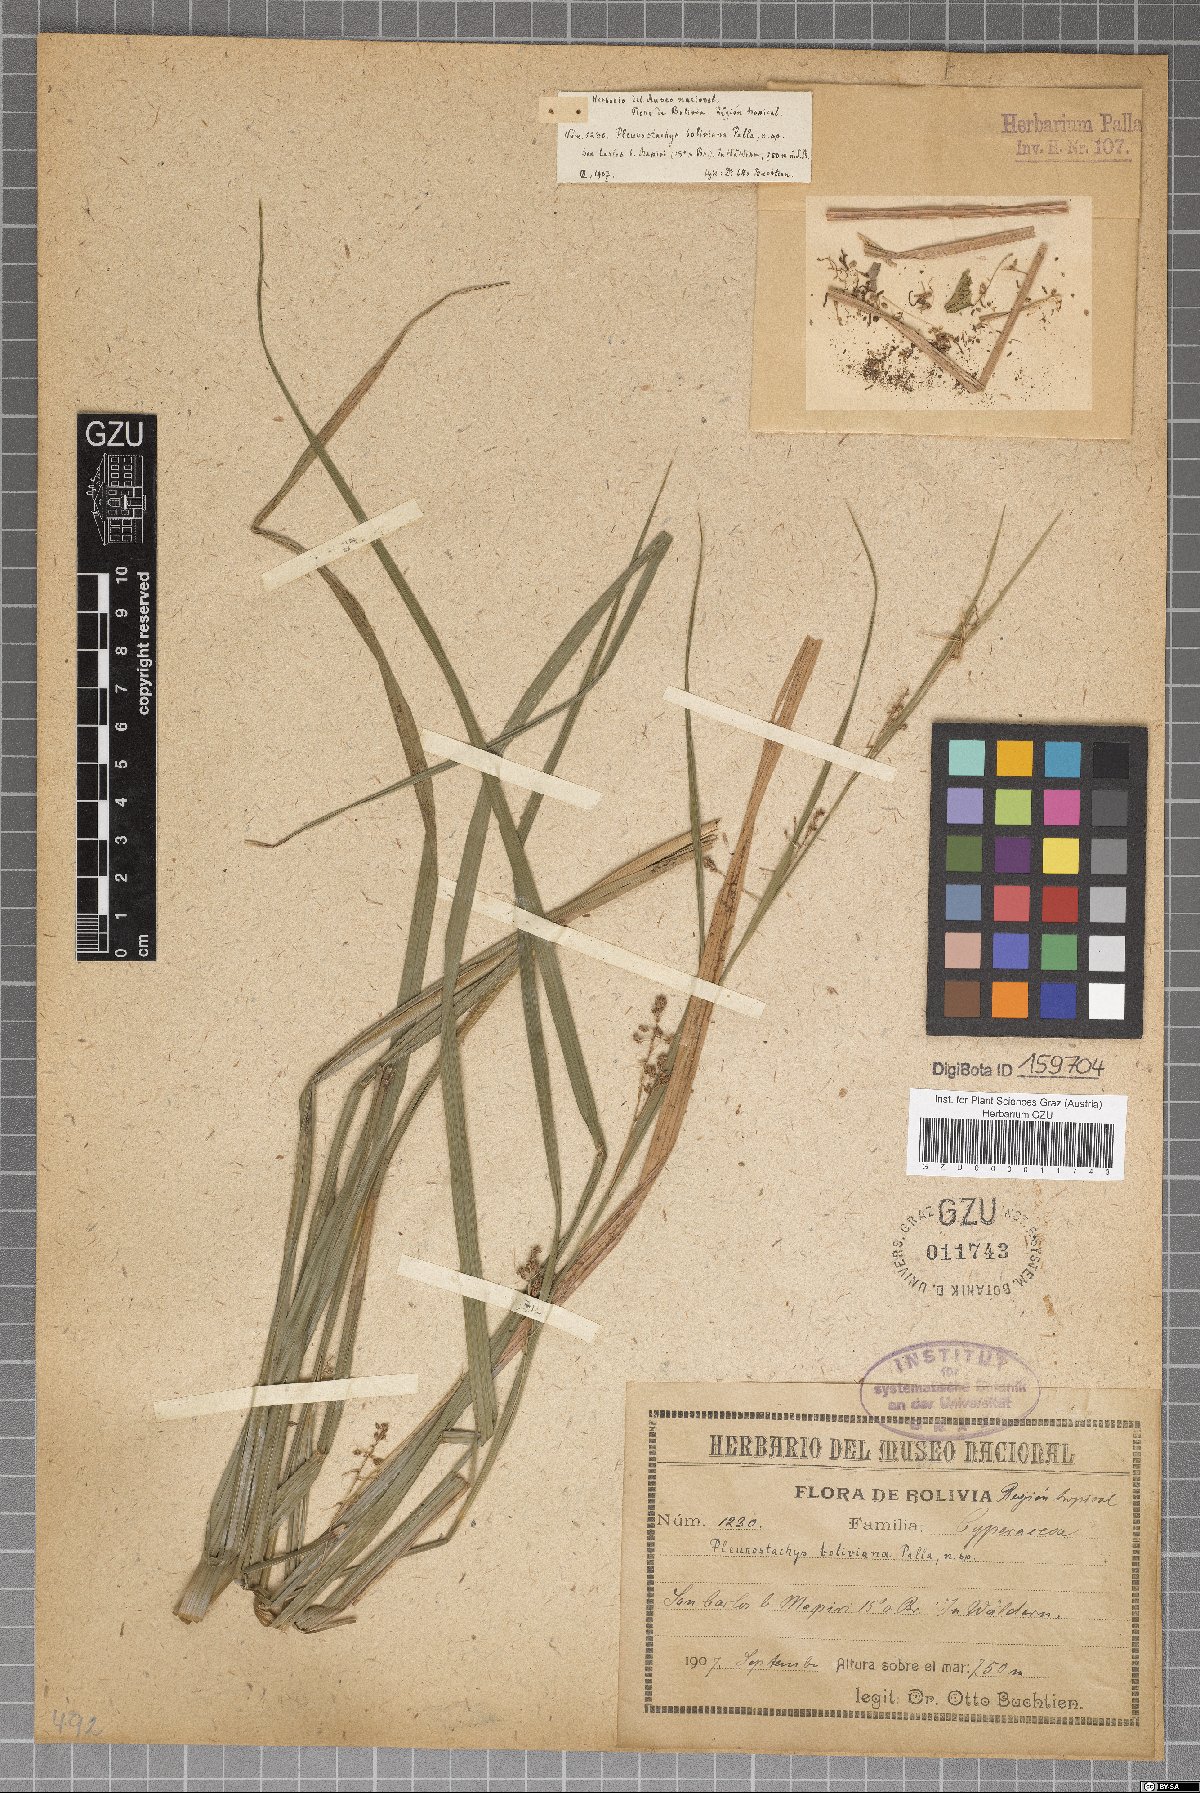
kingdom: Plantae
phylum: Tracheophyta
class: Liliopsida
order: Poales
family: Cyperaceae
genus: Rhynchospora
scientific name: Rhynchospora Pleurostachys boliviana
